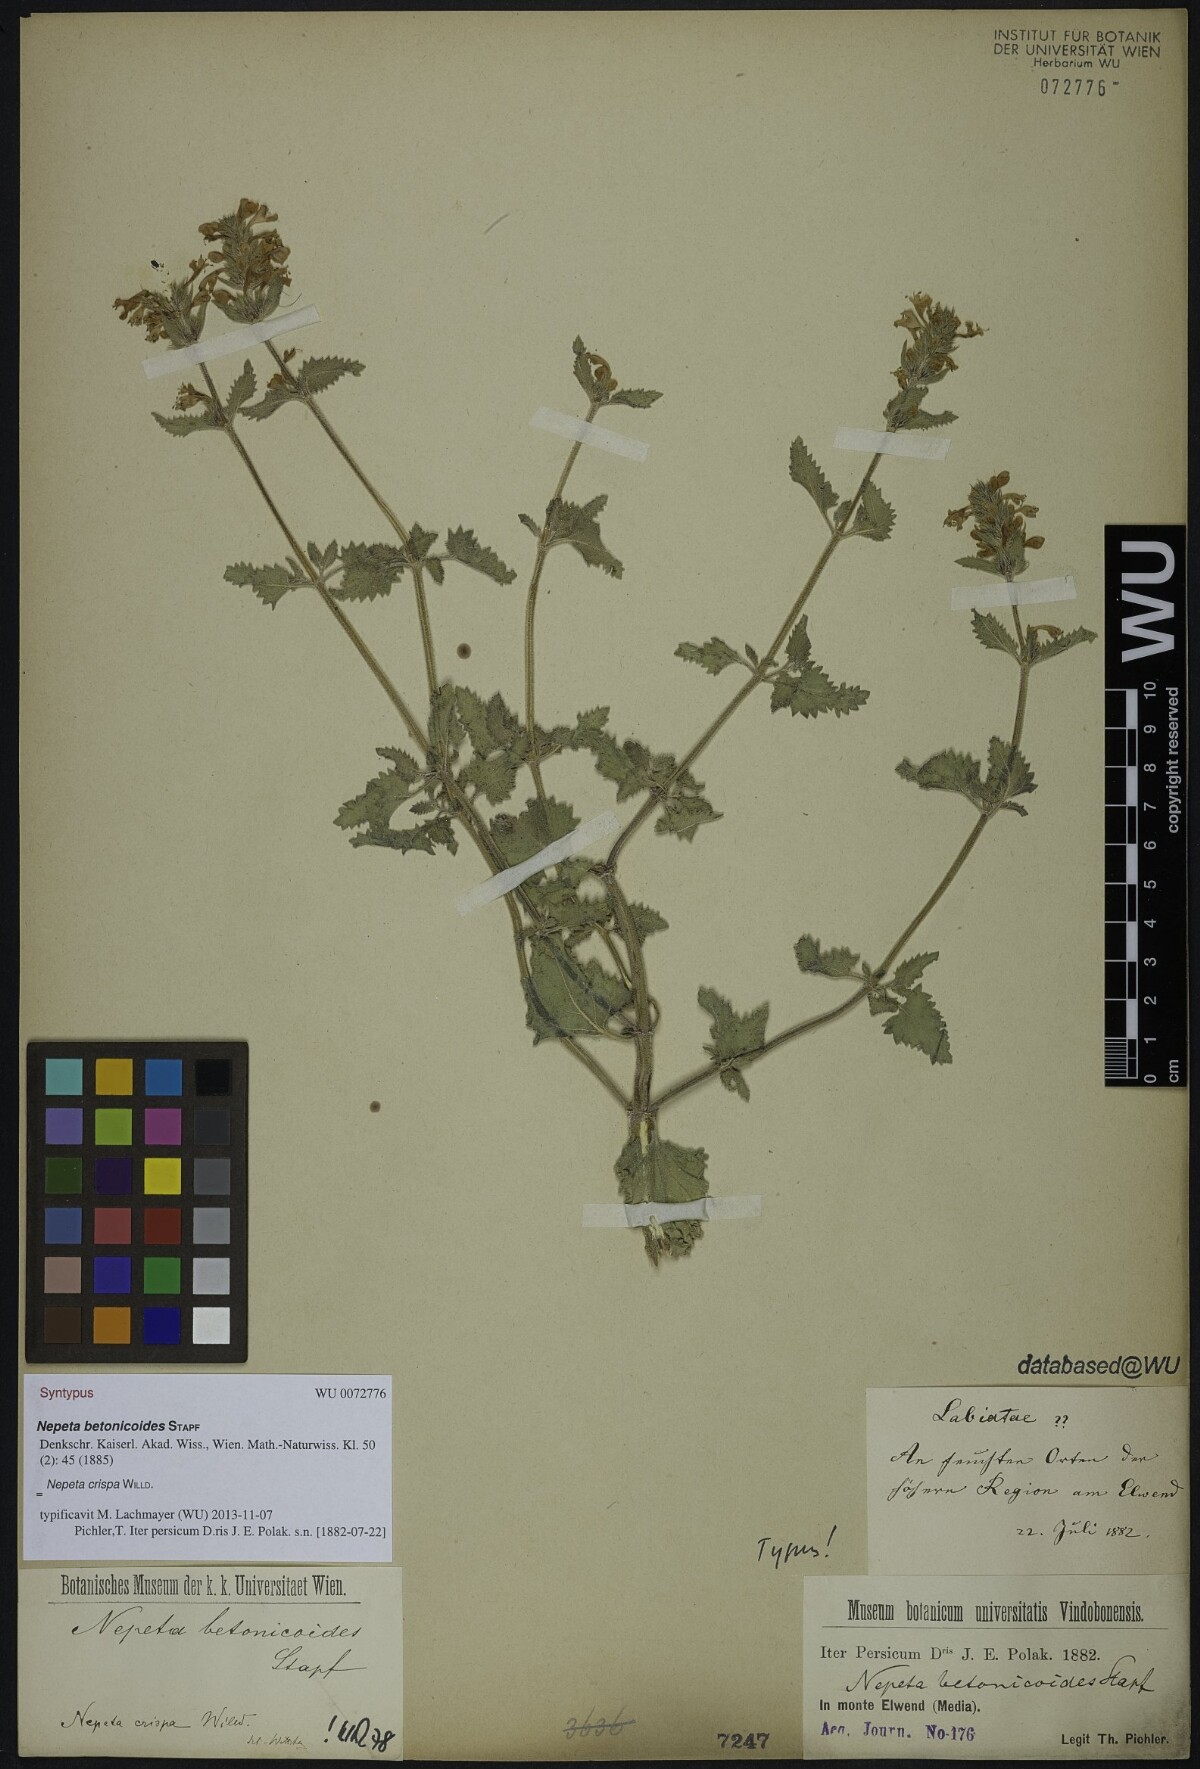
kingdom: Plantae
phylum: Tracheophyta
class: Magnoliopsida
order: Lamiales
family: Lamiaceae
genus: Nepeta
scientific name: Nepeta crispa
